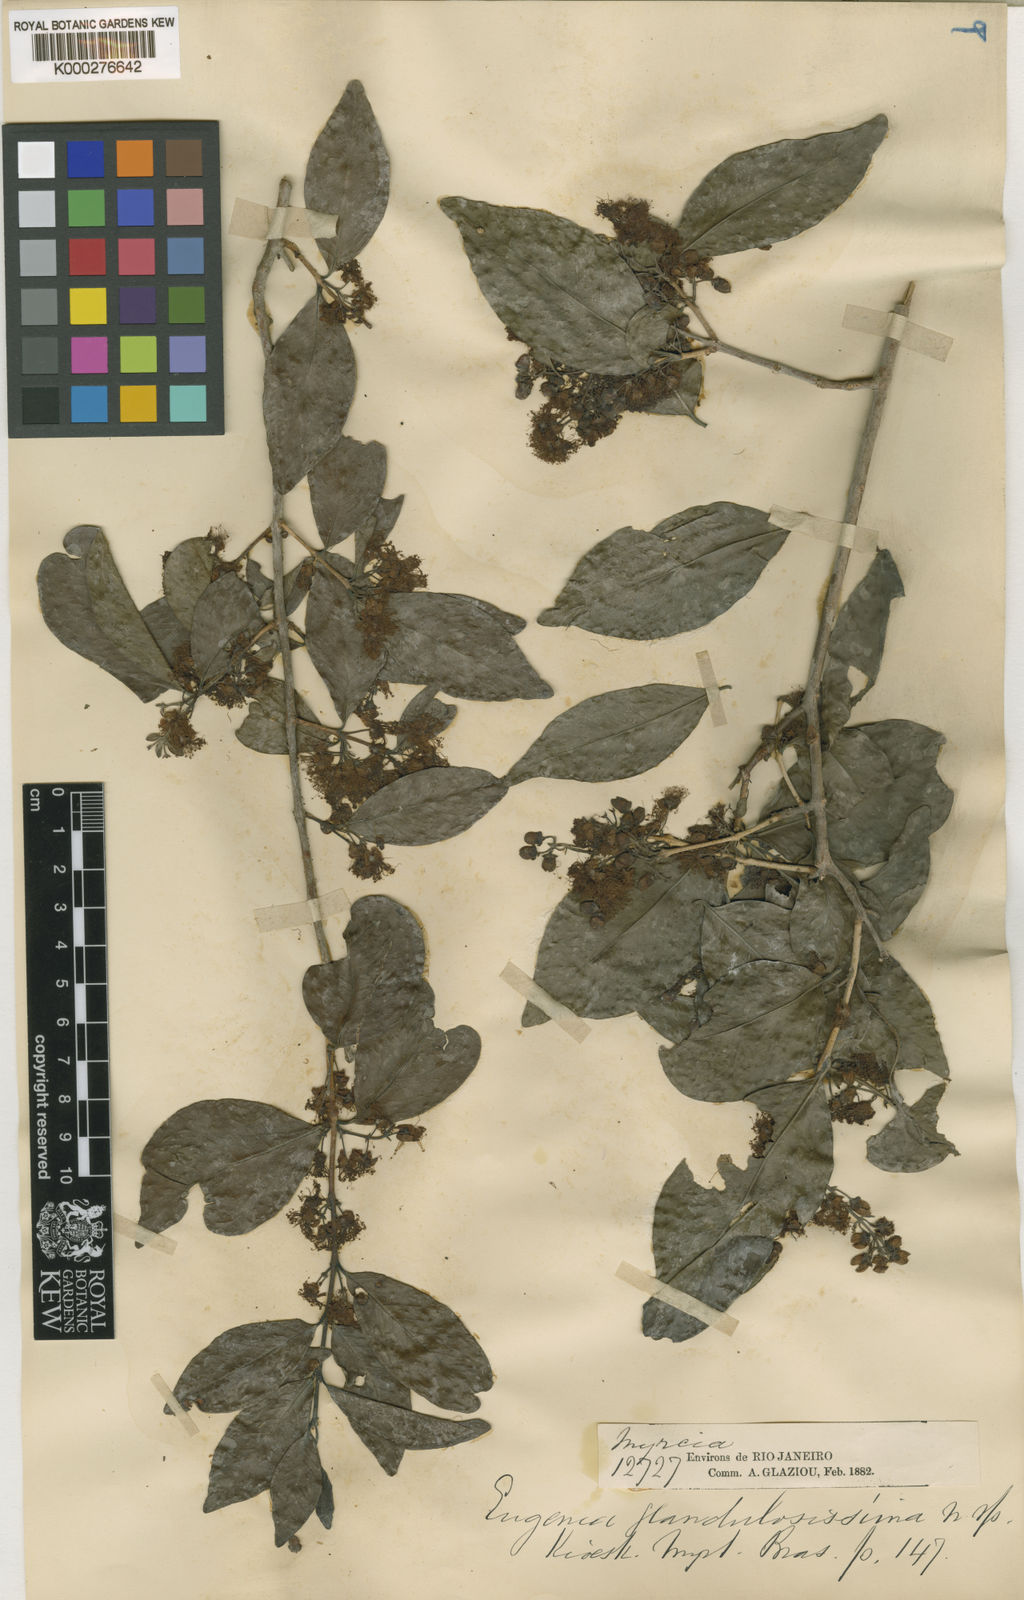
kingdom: Plantae
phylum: Tracheophyta
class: Magnoliopsida
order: Myrtales
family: Myrtaceae
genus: Eugenia
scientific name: Eugenia candolleana
